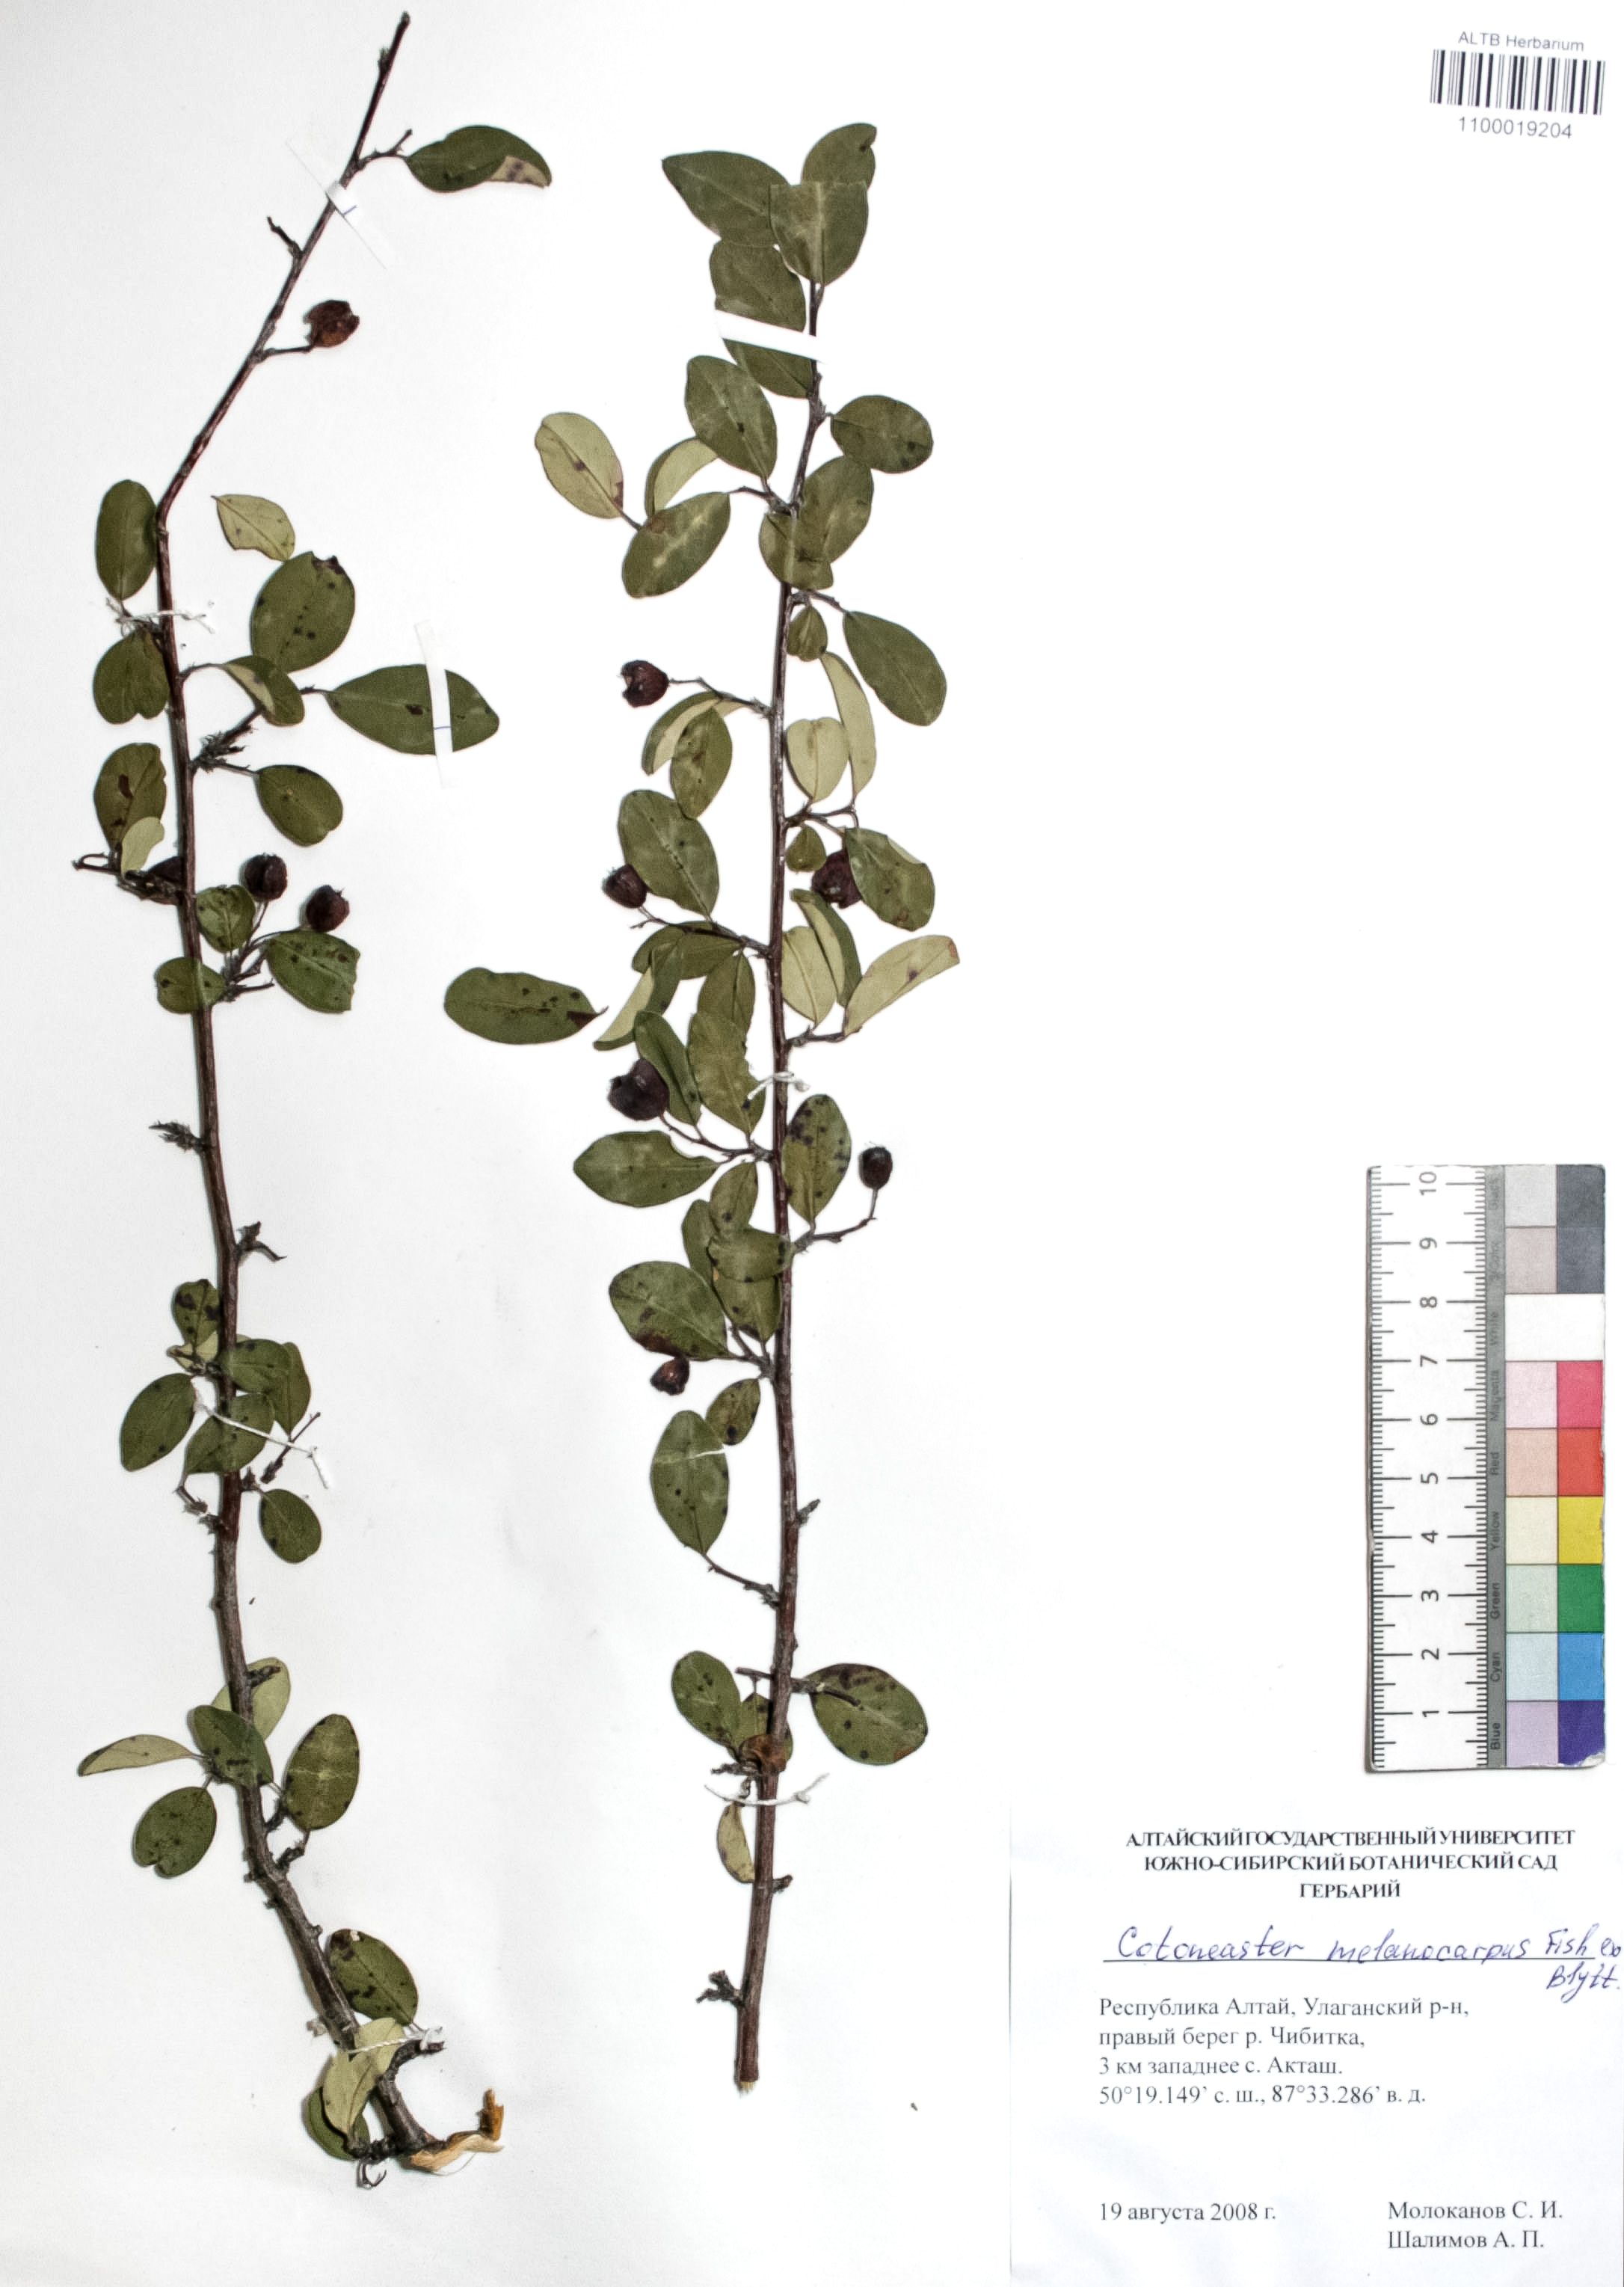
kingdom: Plantae
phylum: Tracheophyta
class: Magnoliopsida
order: Rosales
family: Rosaceae
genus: Cotoneaster
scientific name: Cotoneaster niger
